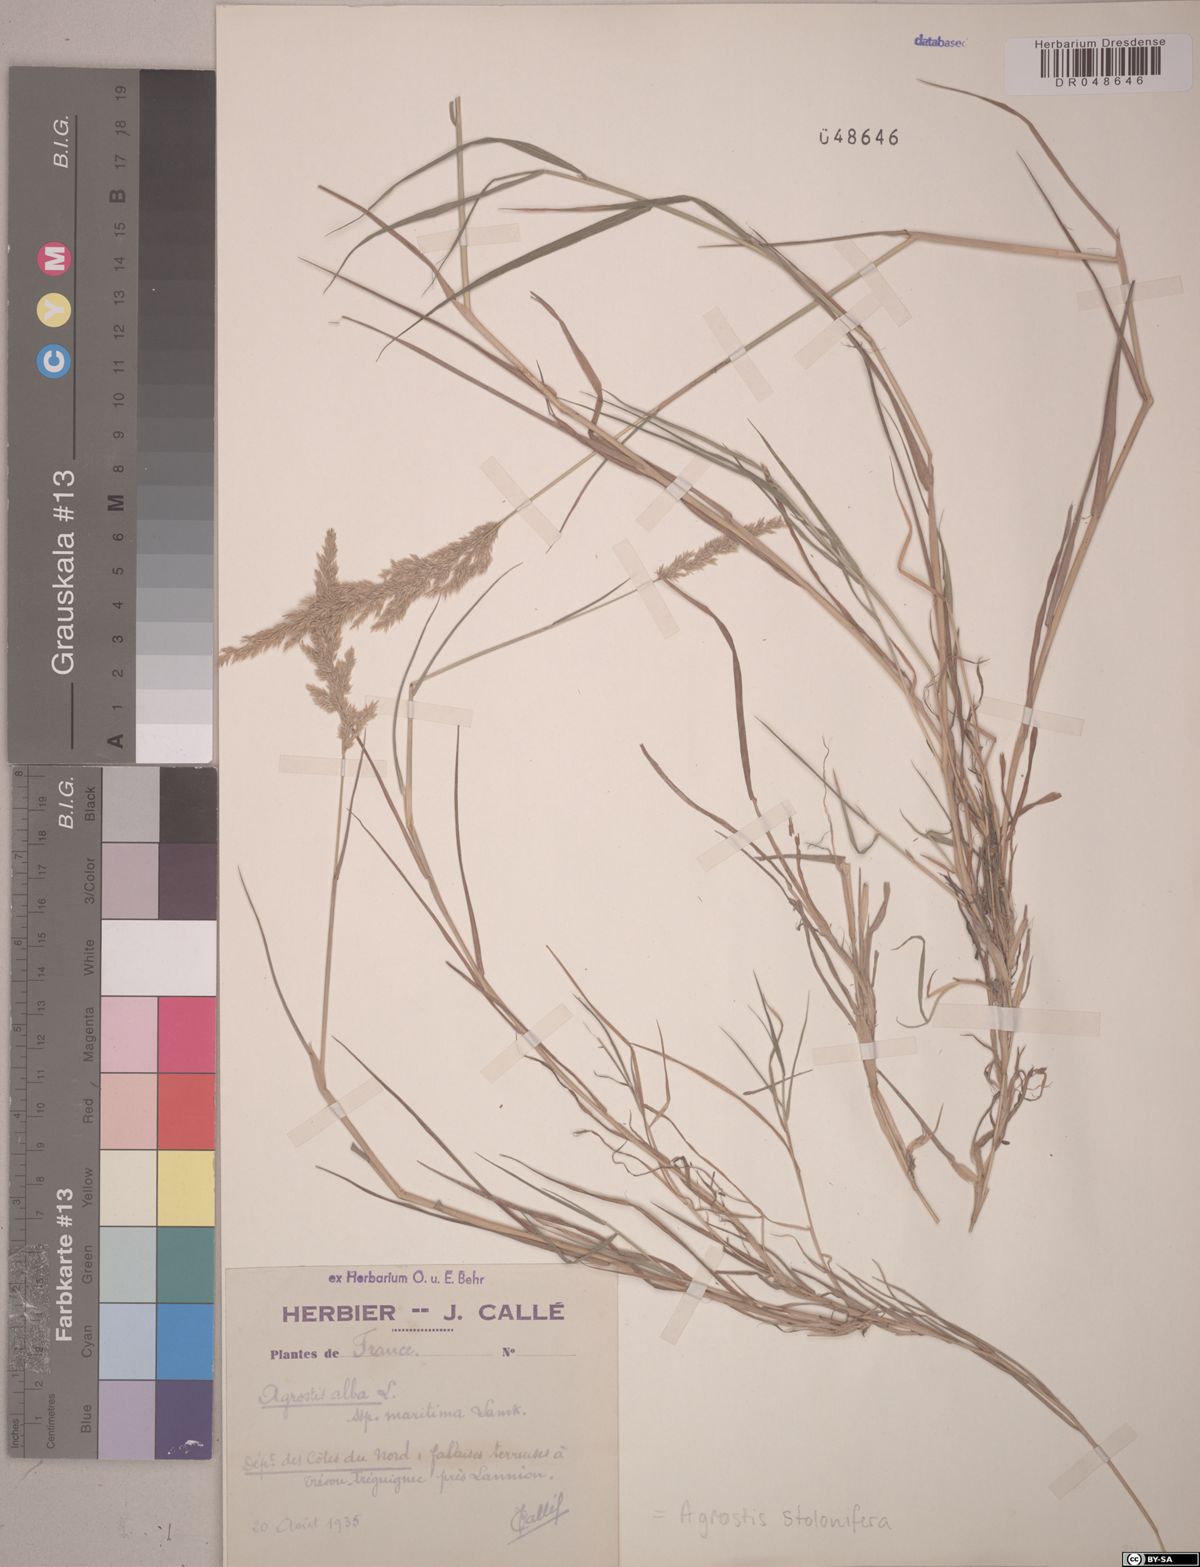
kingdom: Plantae
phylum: Tracheophyta
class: Liliopsida
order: Poales
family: Poaceae
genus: Agrostis
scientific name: Agrostis stolonifera
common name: Creeping bentgrass
